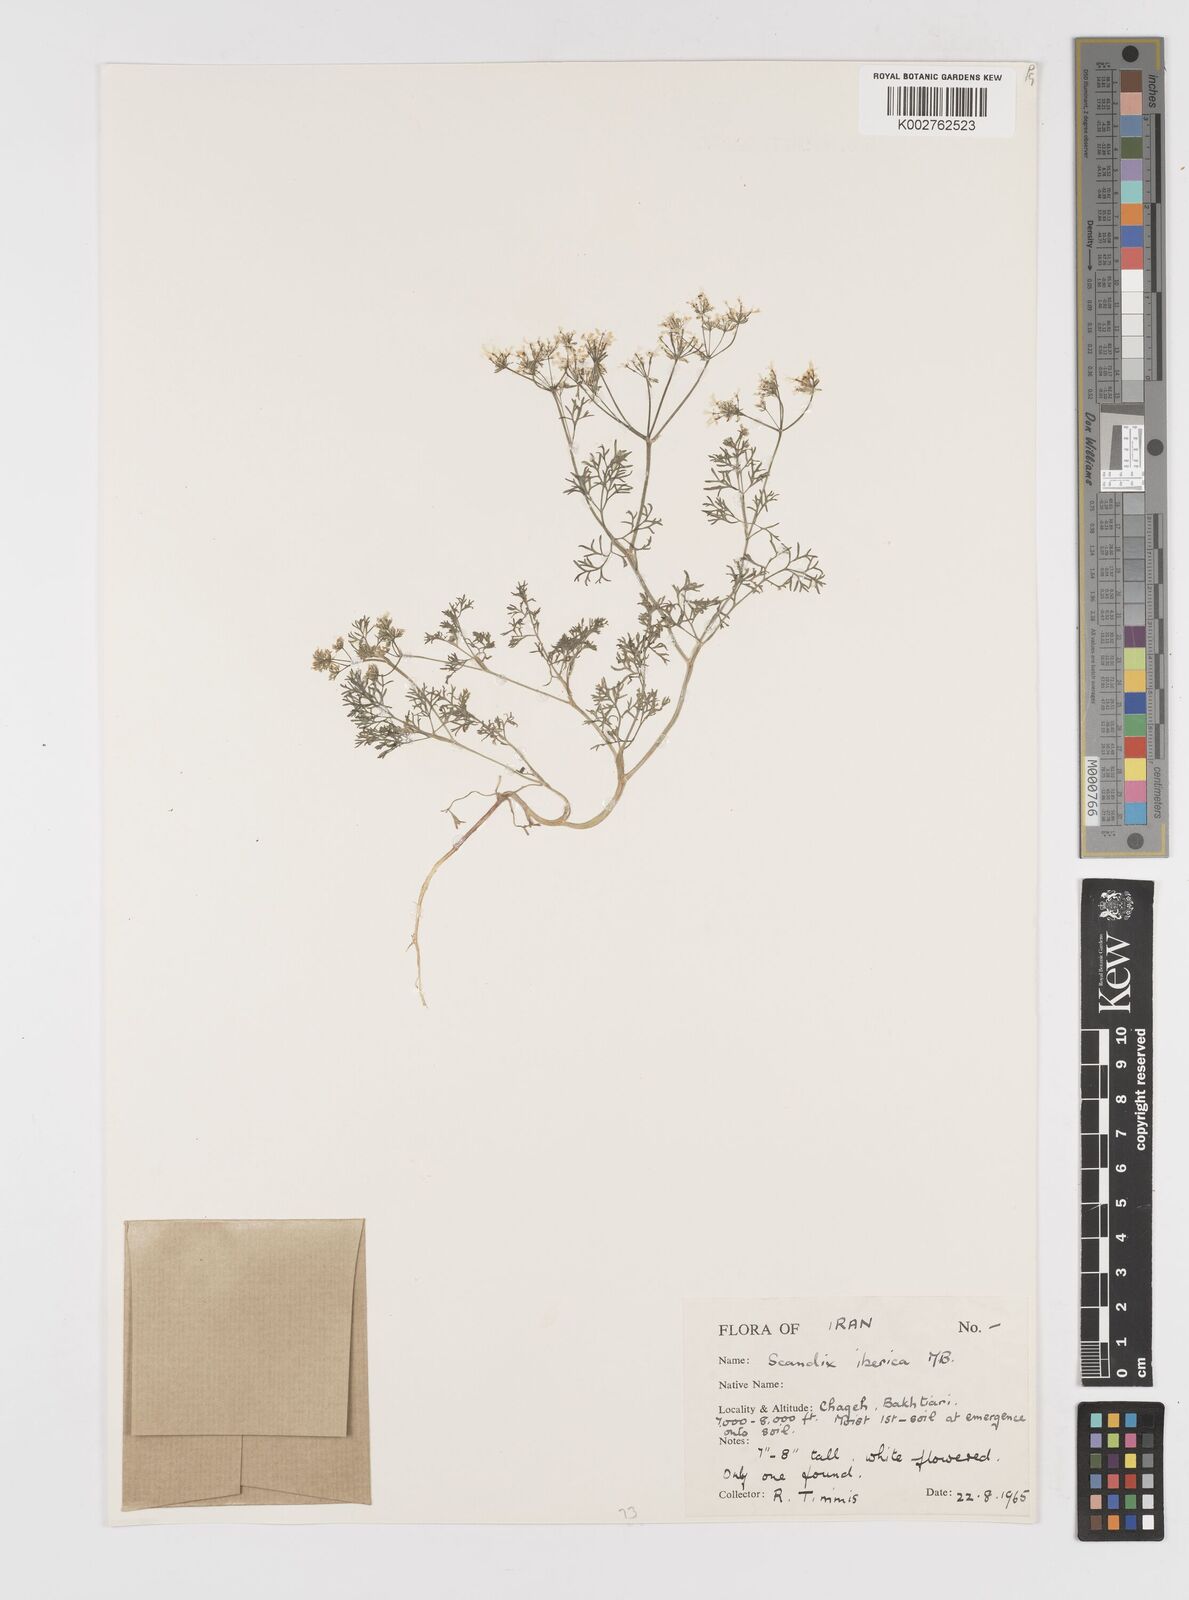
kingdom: Plantae
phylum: Tracheophyta
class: Magnoliopsida
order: Apiales
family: Apiaceae
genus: Scandix
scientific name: Scandix iberica
